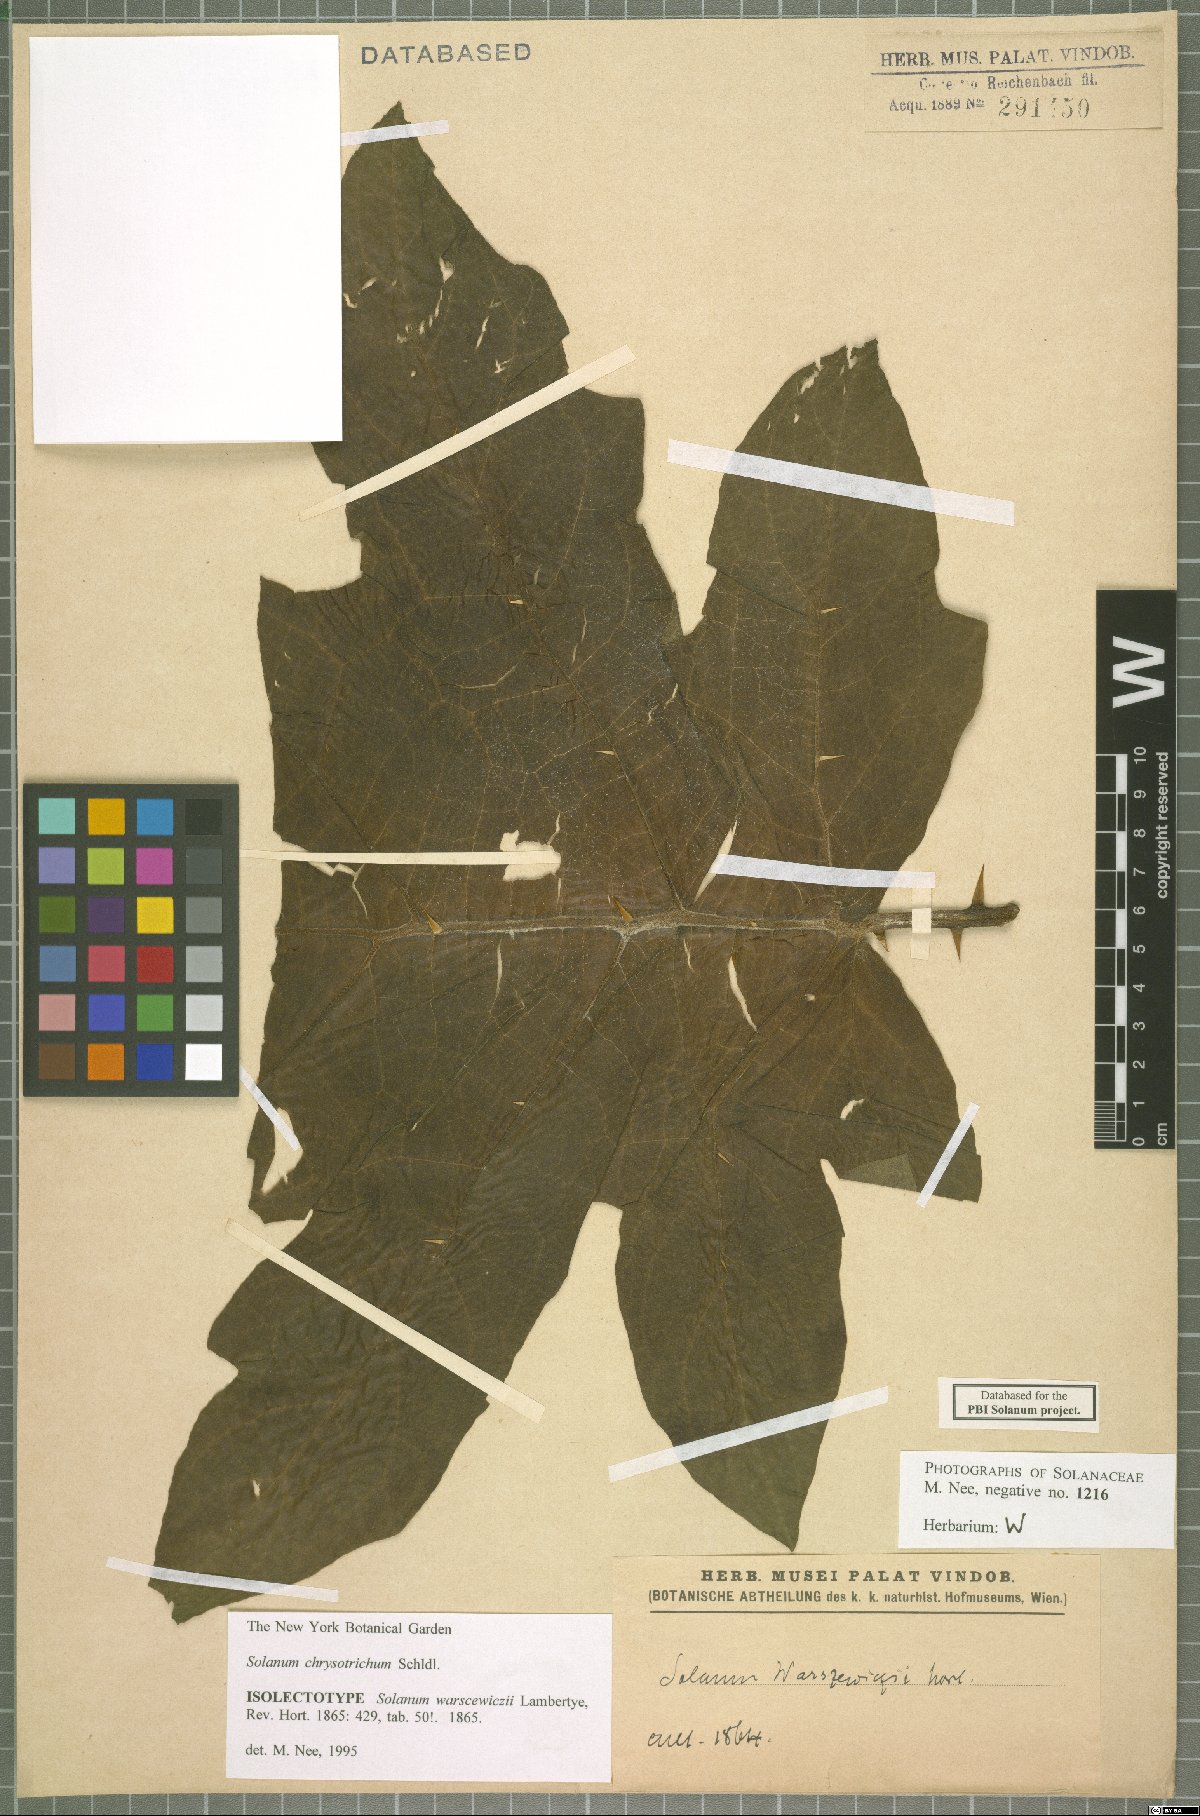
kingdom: Plantae
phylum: Tracheophyta
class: Magnoliopsida
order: Solanales
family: Solanaceae
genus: Solanum
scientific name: Solanum chrysotrichum
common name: Nightshade
